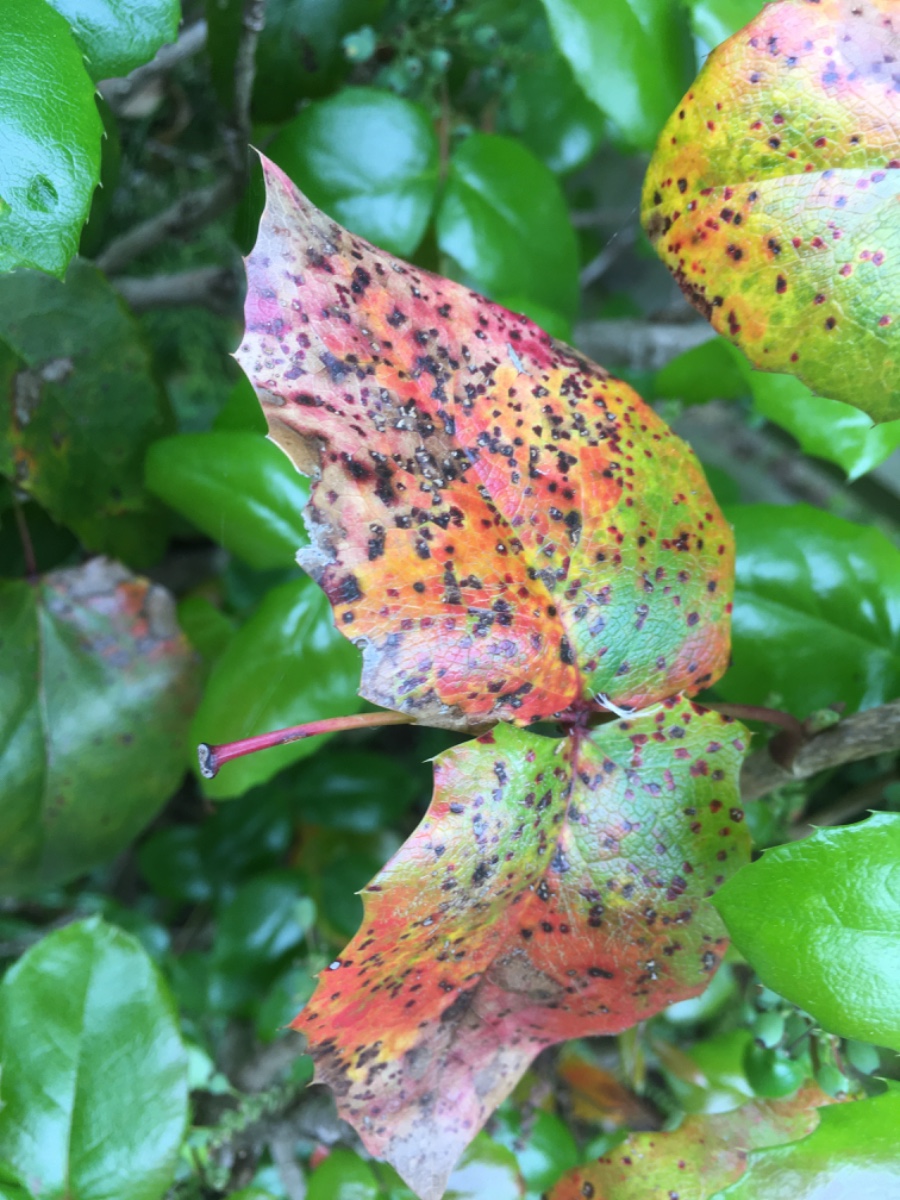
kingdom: Fungi
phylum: Basidiomycota
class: Pucciniomycetes
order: Pucciniales
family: Pucciniaceae
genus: Cumminsiella
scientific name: Cumminsiella mirabilissima
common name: mahonierust
